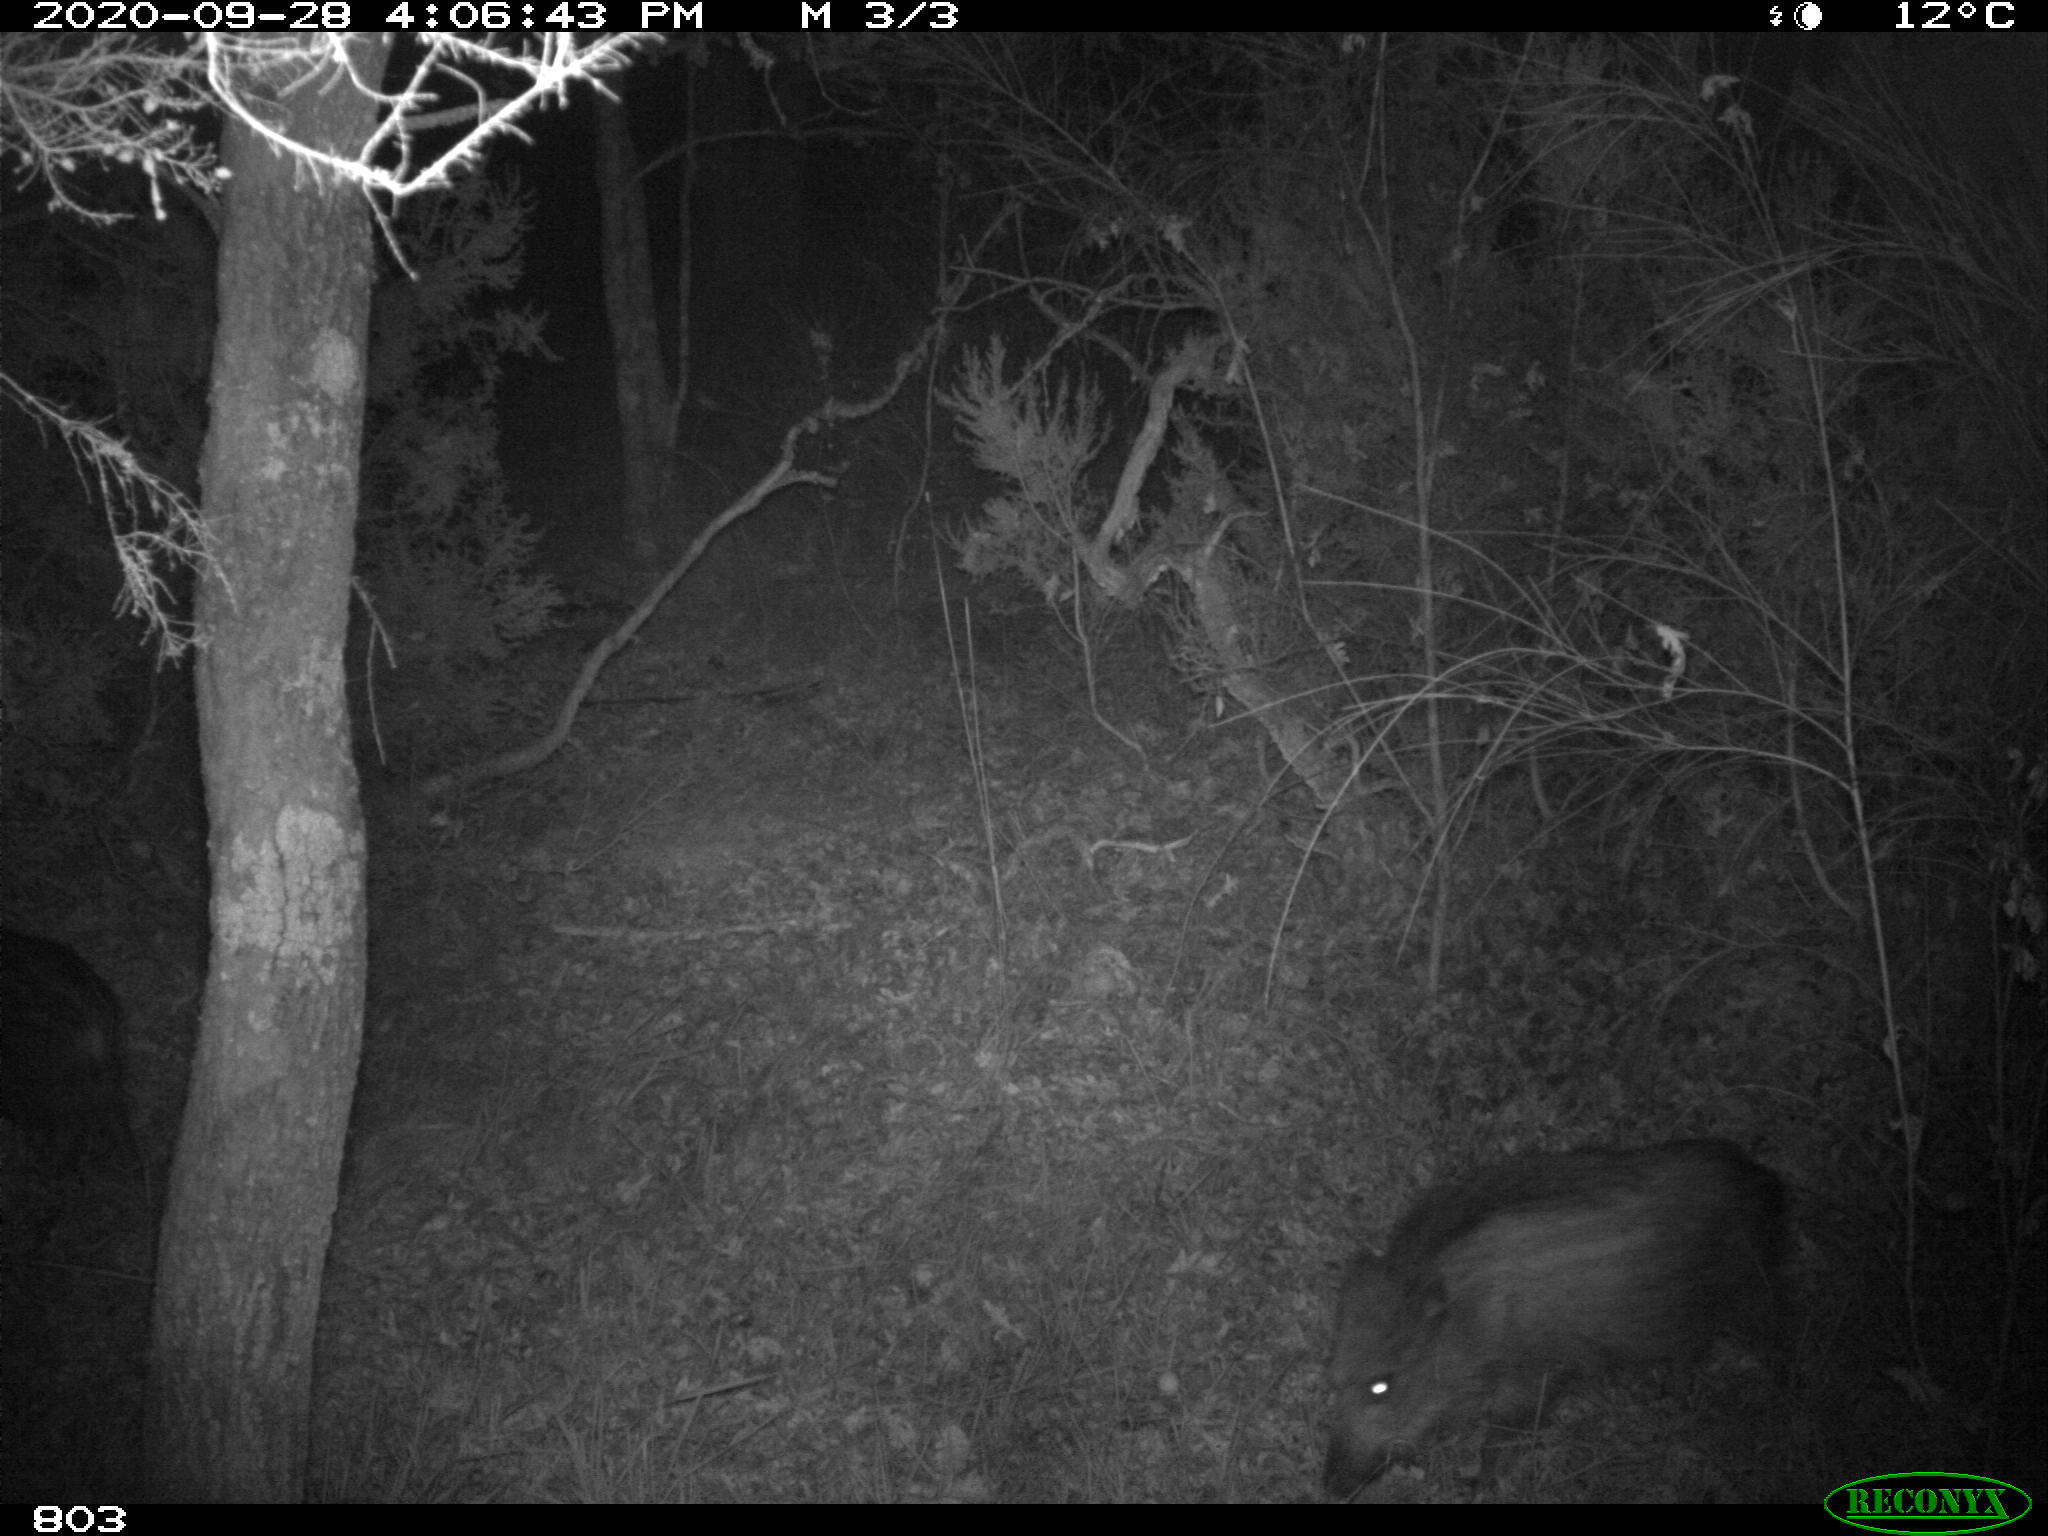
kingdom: Animalia
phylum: Chordata
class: Mammalia
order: Artiodactyla
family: Suidae
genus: Sus
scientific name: Sus scrofa
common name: Wild boar
